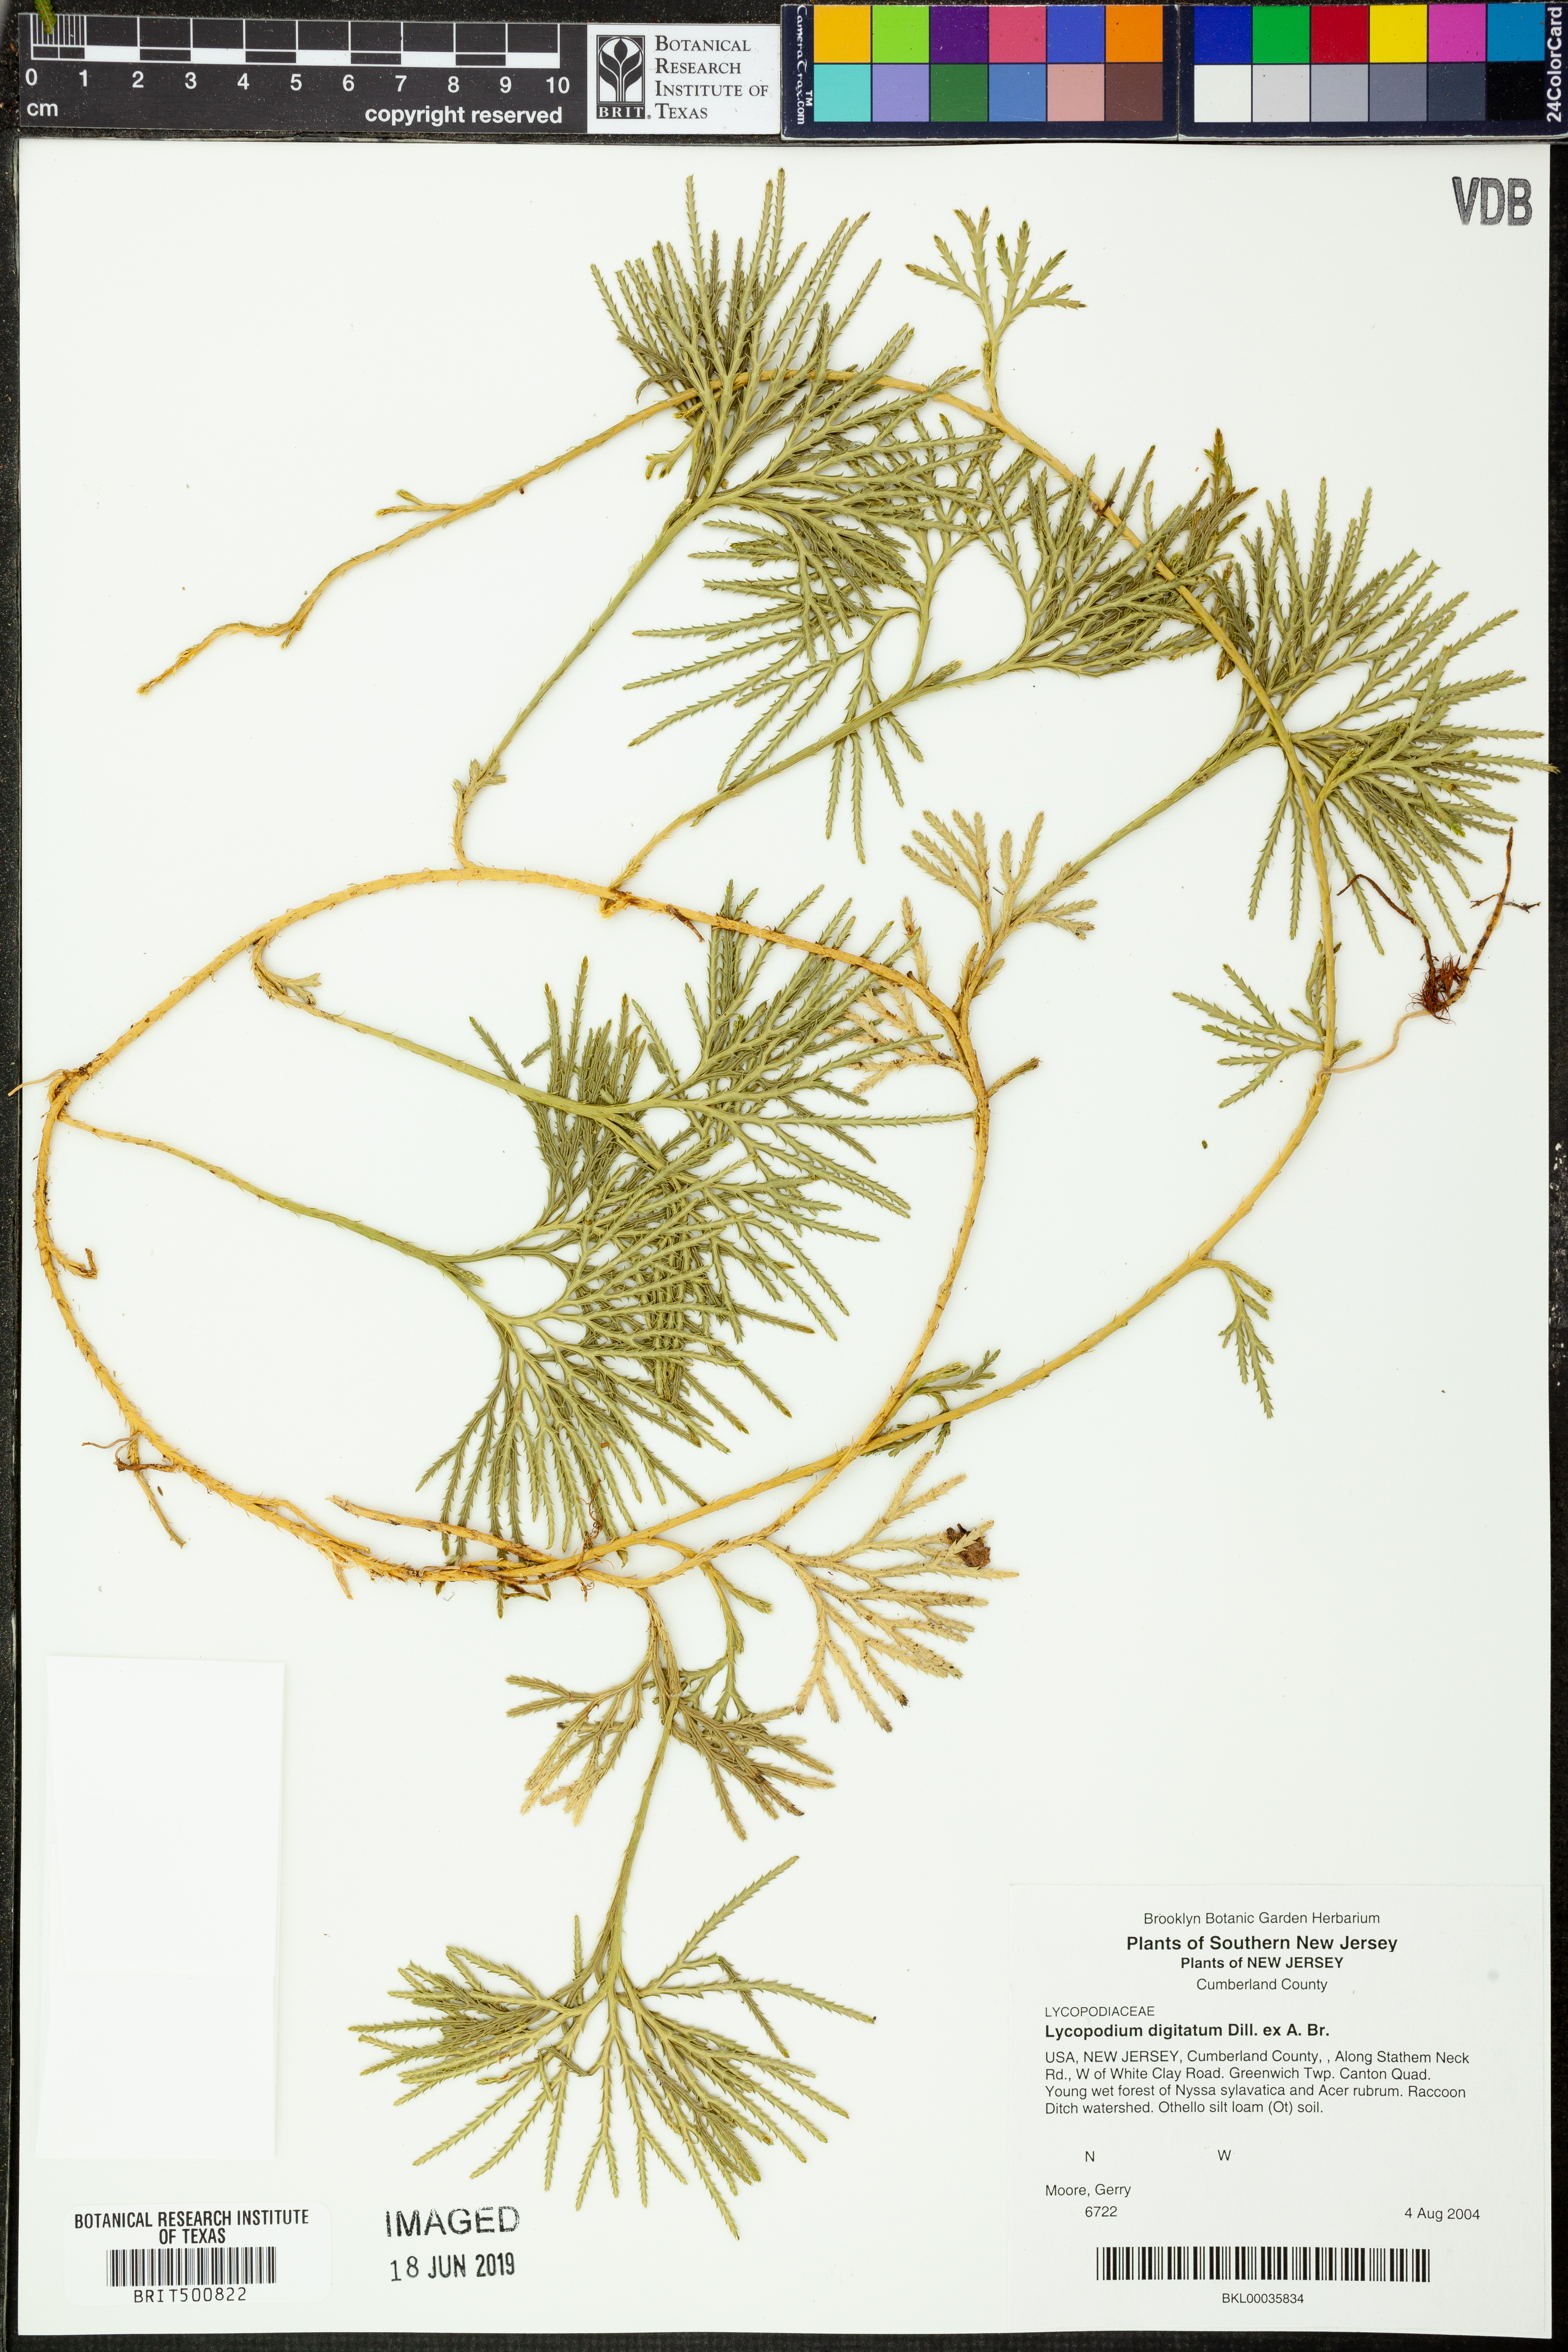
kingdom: Plantae
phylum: Tracheophyta
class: Lycopodiopsida
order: Lycopodiales
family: Lycopodiaceae
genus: Diphasiastrum
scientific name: Diphasiastrum digitatum
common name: Southern running-pine
